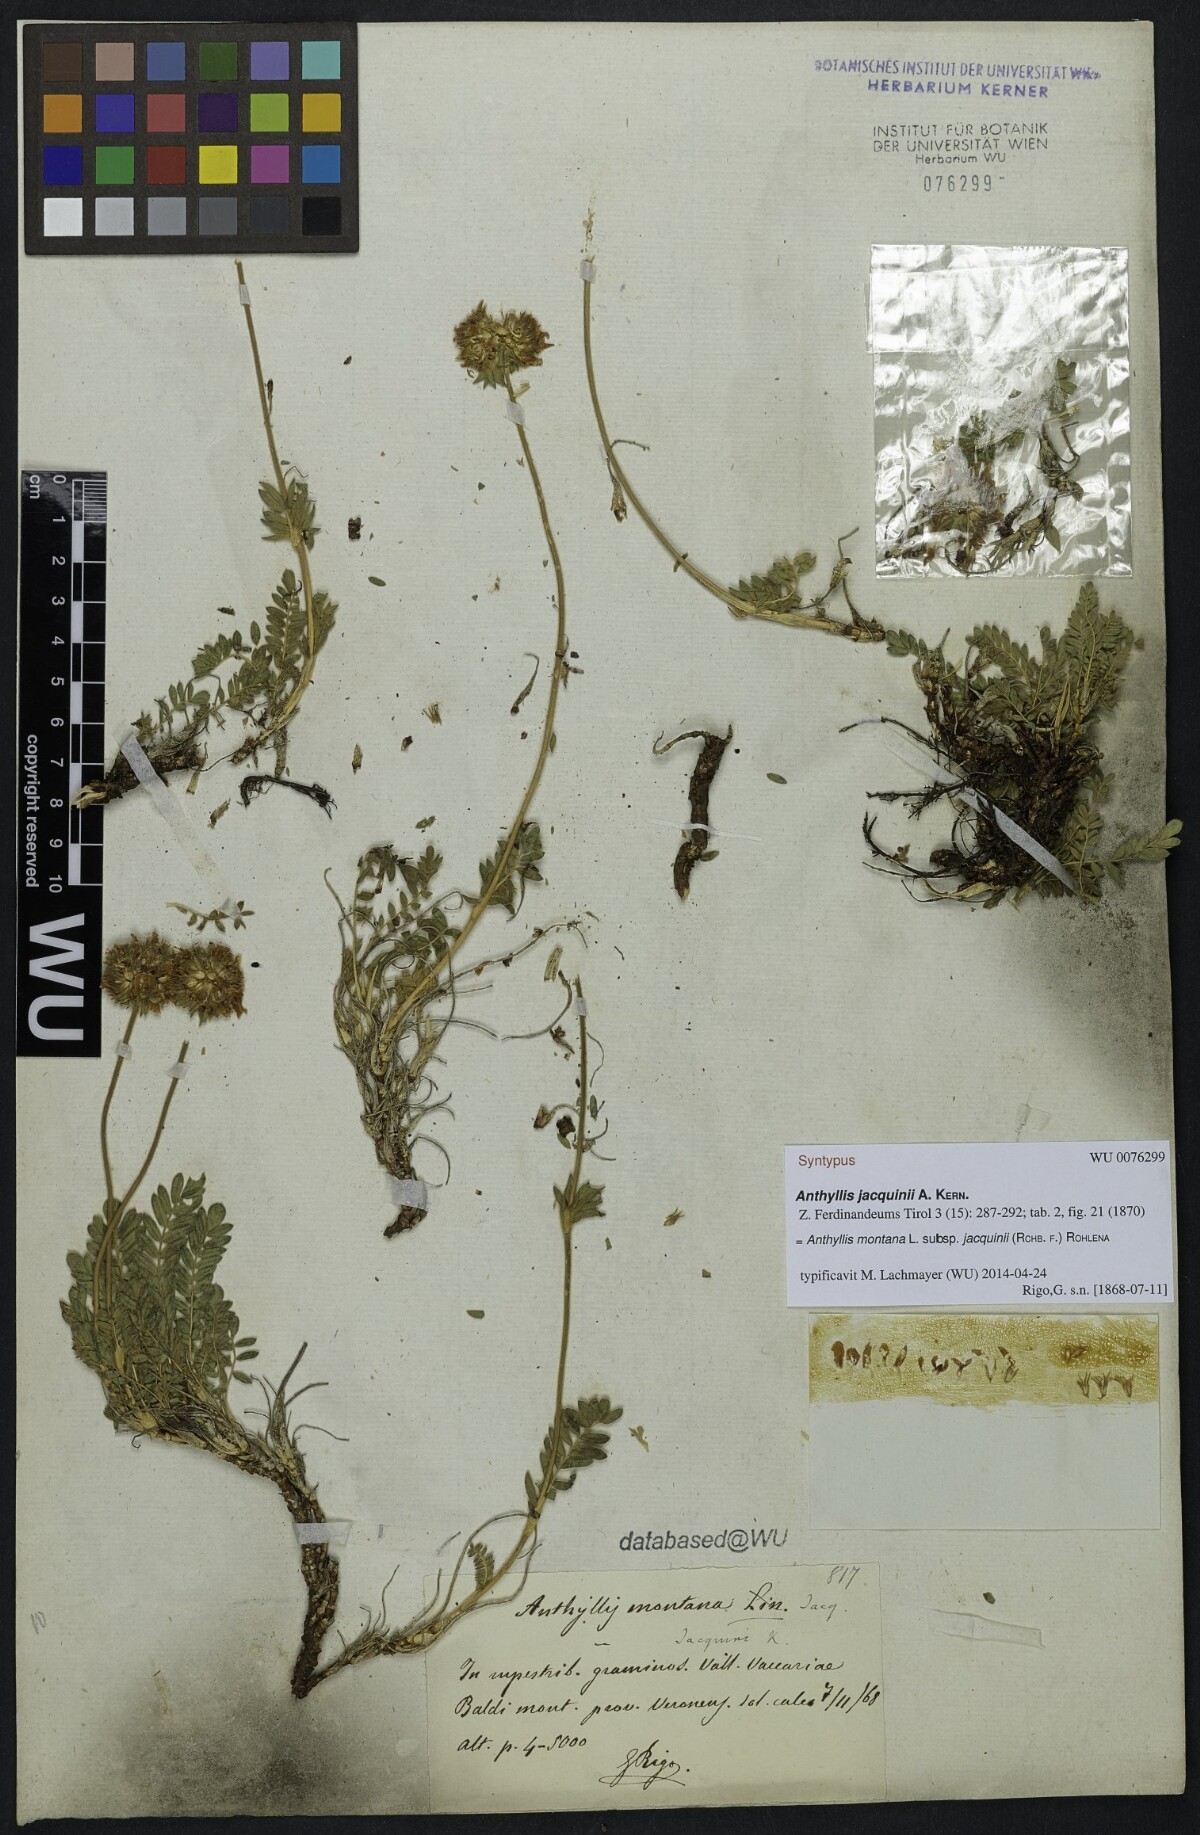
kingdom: Plantae
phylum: Tracheophyta
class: Magnoliopsida
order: Fabales
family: Fabaceae
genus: Anthyllis
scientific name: Anthyllis montana
